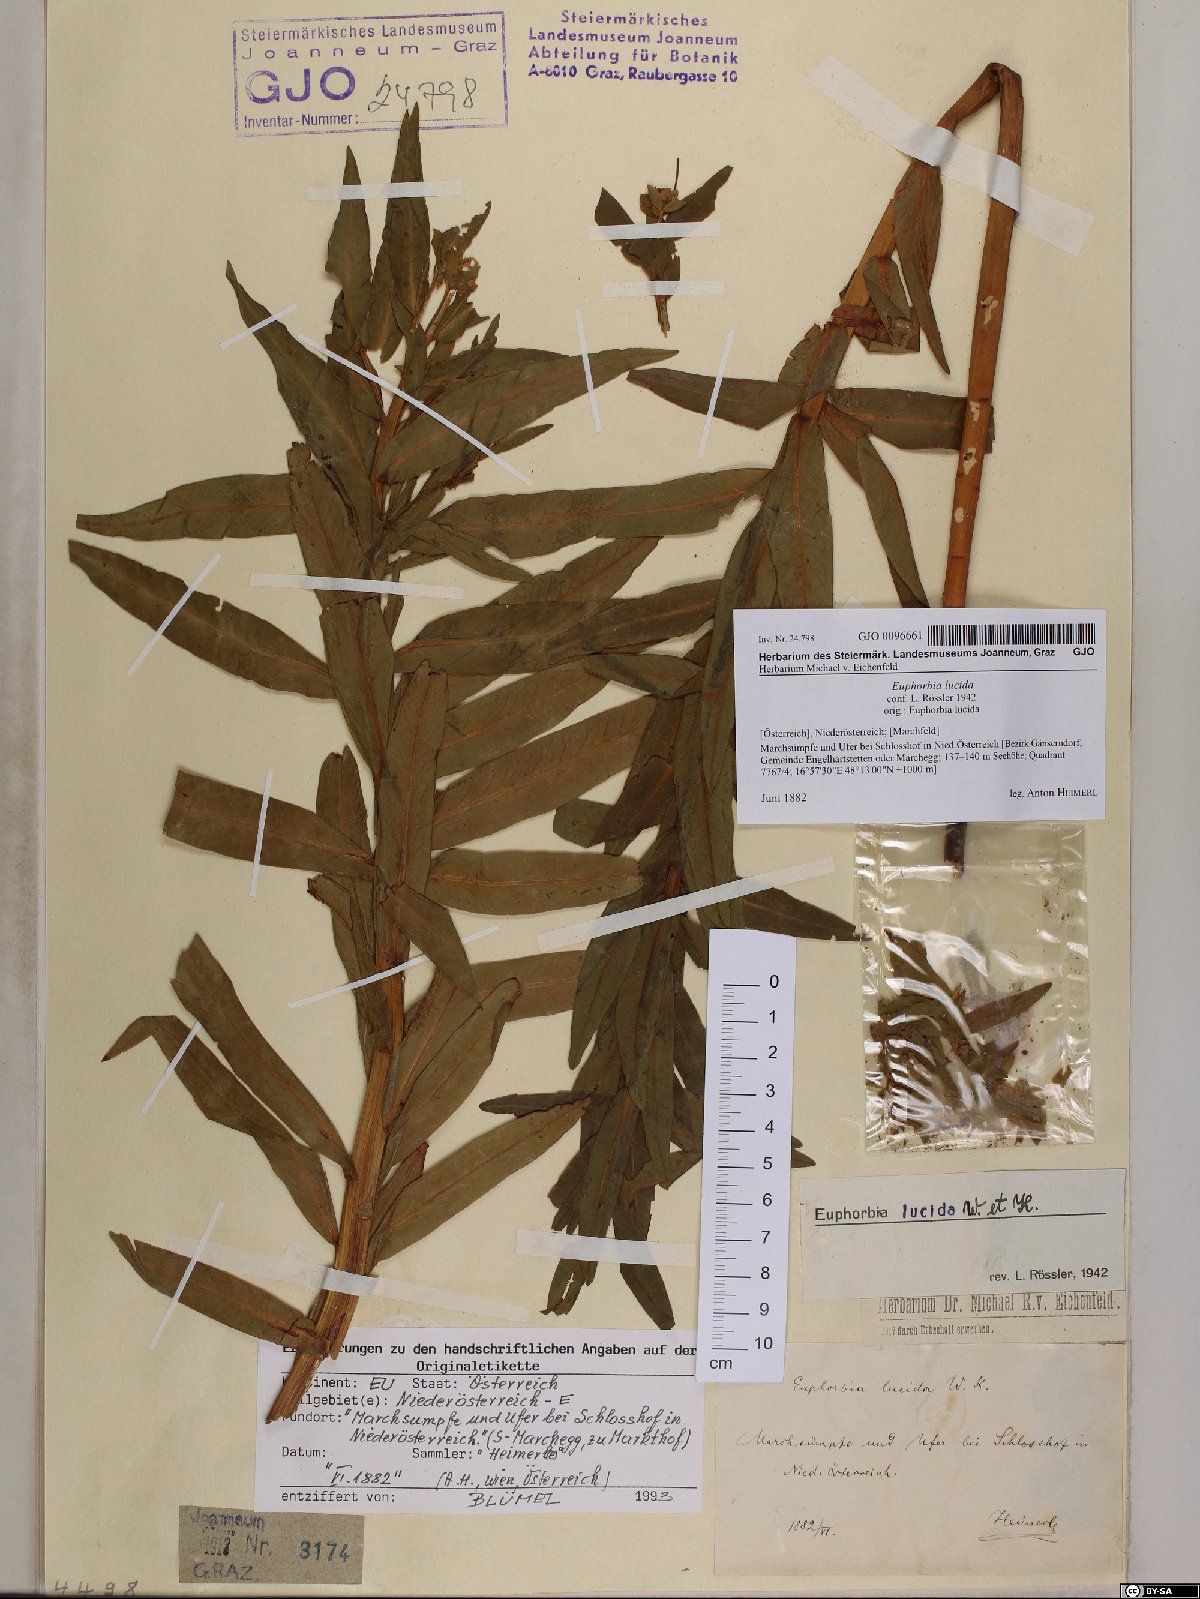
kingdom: Plantae
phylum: Tracheophyta
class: Magnoliopsida
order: Malpighiales
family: Euphorbiaceae
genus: Euphorbia
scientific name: Euphorbia lucida
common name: Shining spurge
